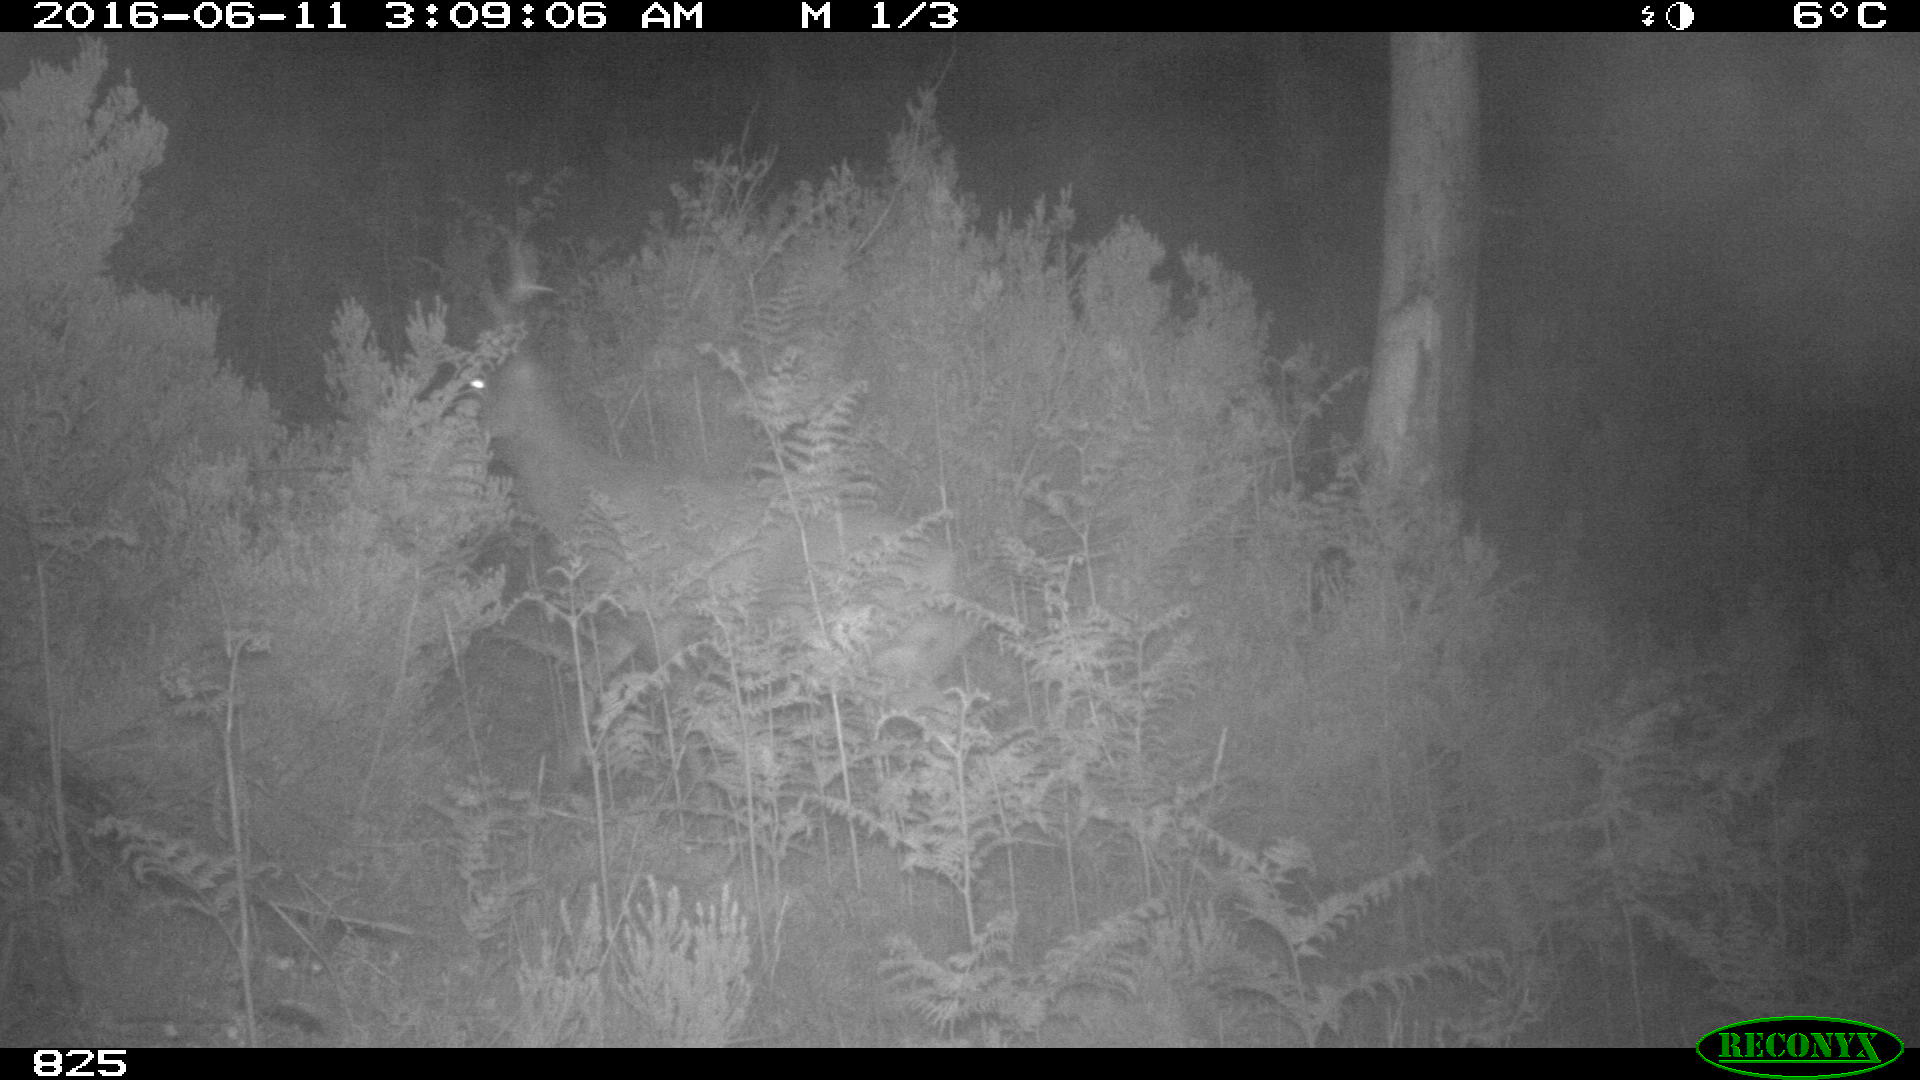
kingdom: Animalia
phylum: Chordata
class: Mammalia
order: Artiodactyla
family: Cervidae
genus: Capreolus
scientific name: Capreolus capreolus
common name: Western roe deer
